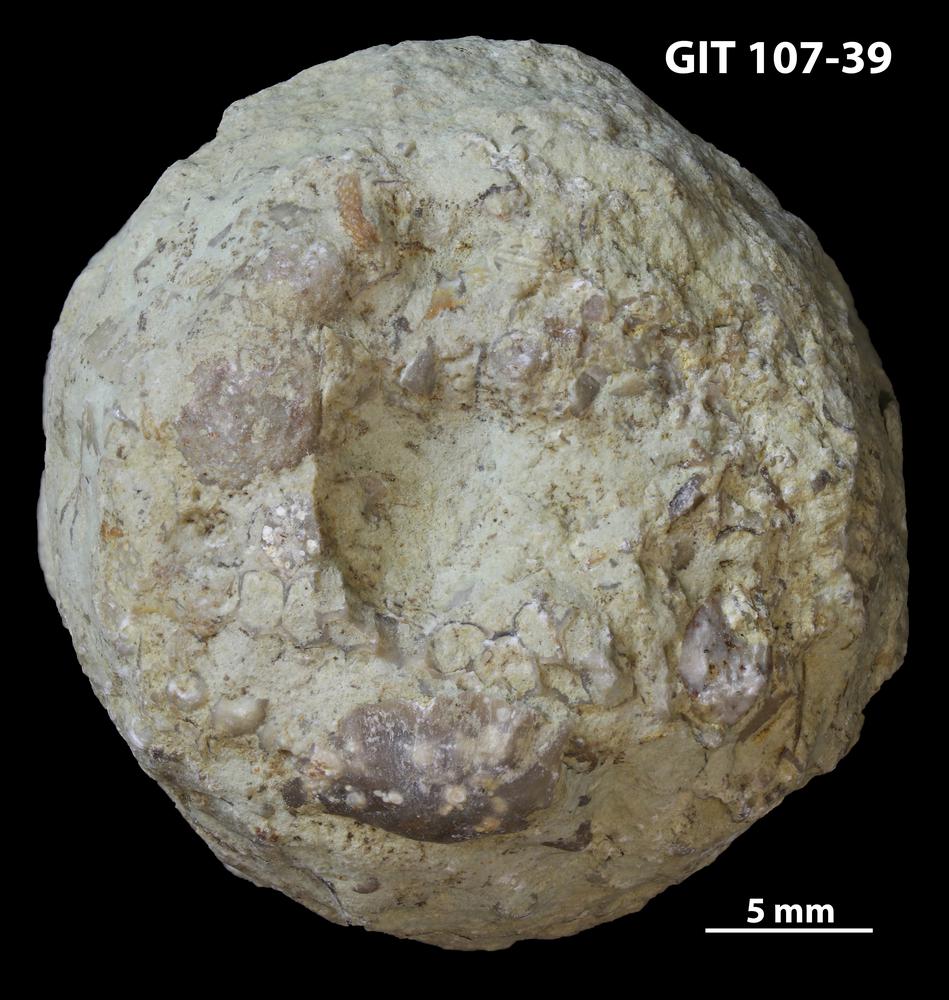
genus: Amphorichnus
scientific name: Amphorichnus
